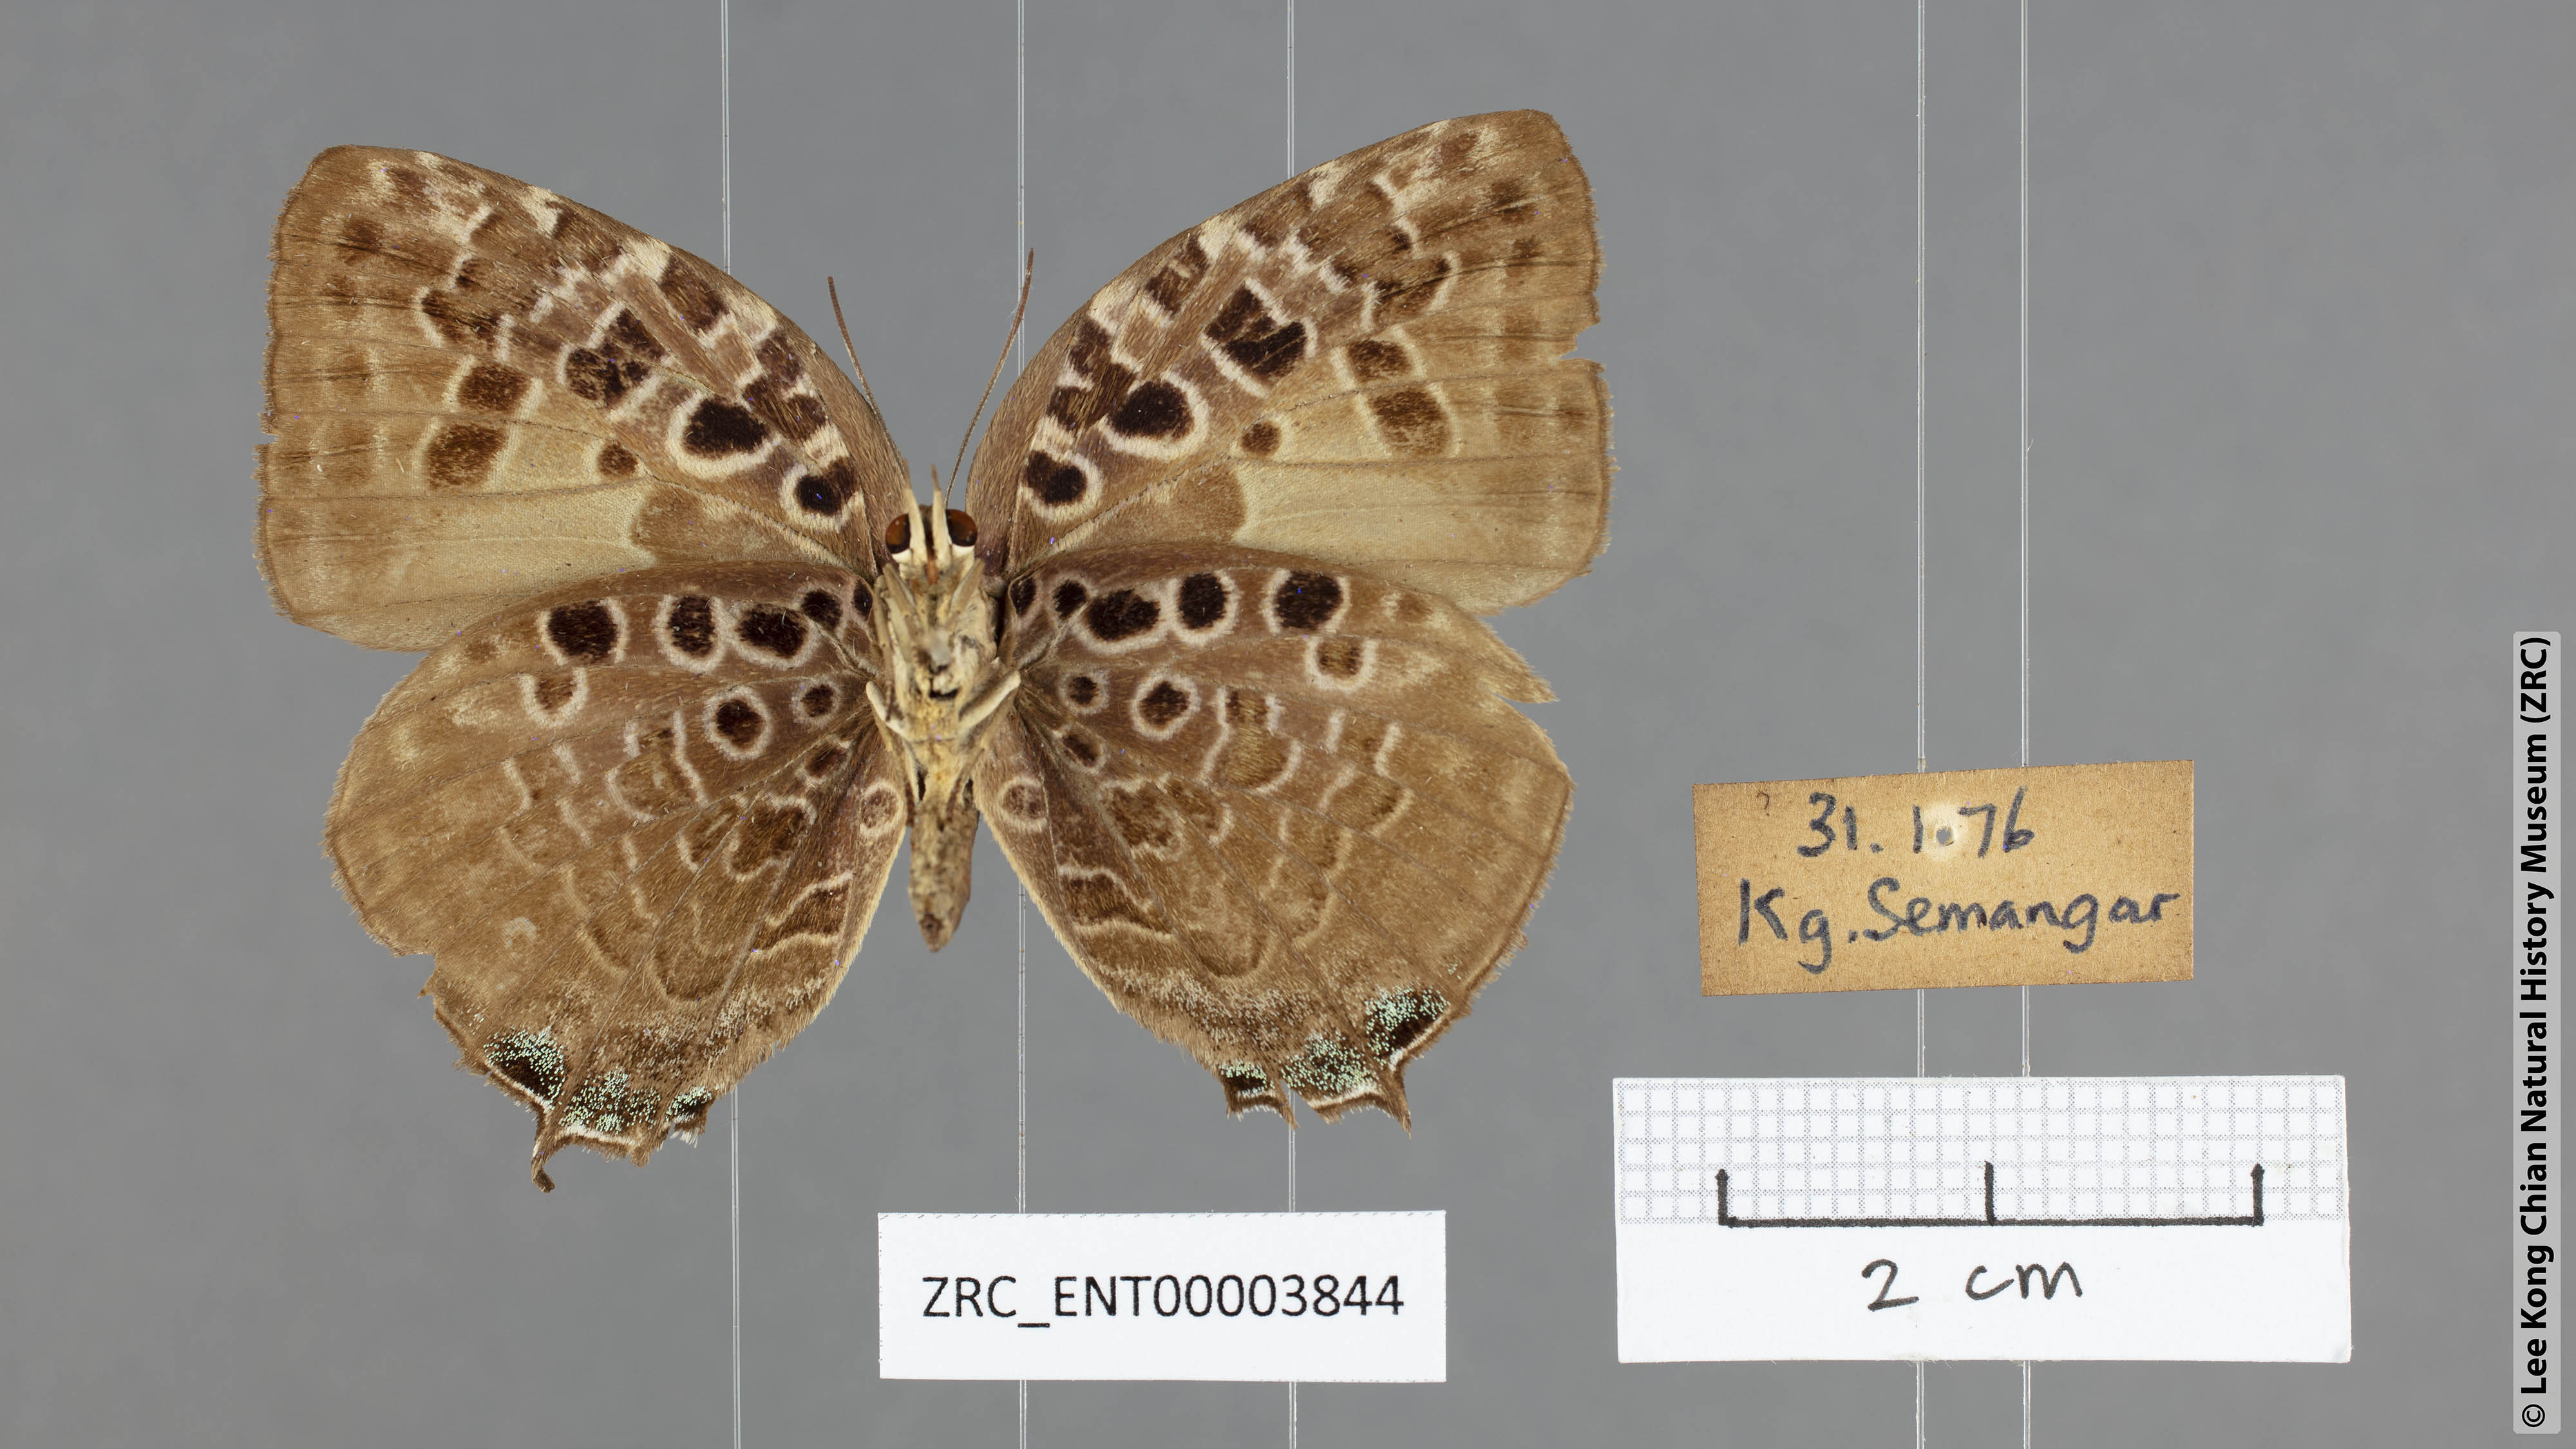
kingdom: Animalia
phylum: Arthropoda
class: Insecta
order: Lepidoptera
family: Lycaenidae
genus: Arhopala
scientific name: Arhopala anthelus
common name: Bushblue
